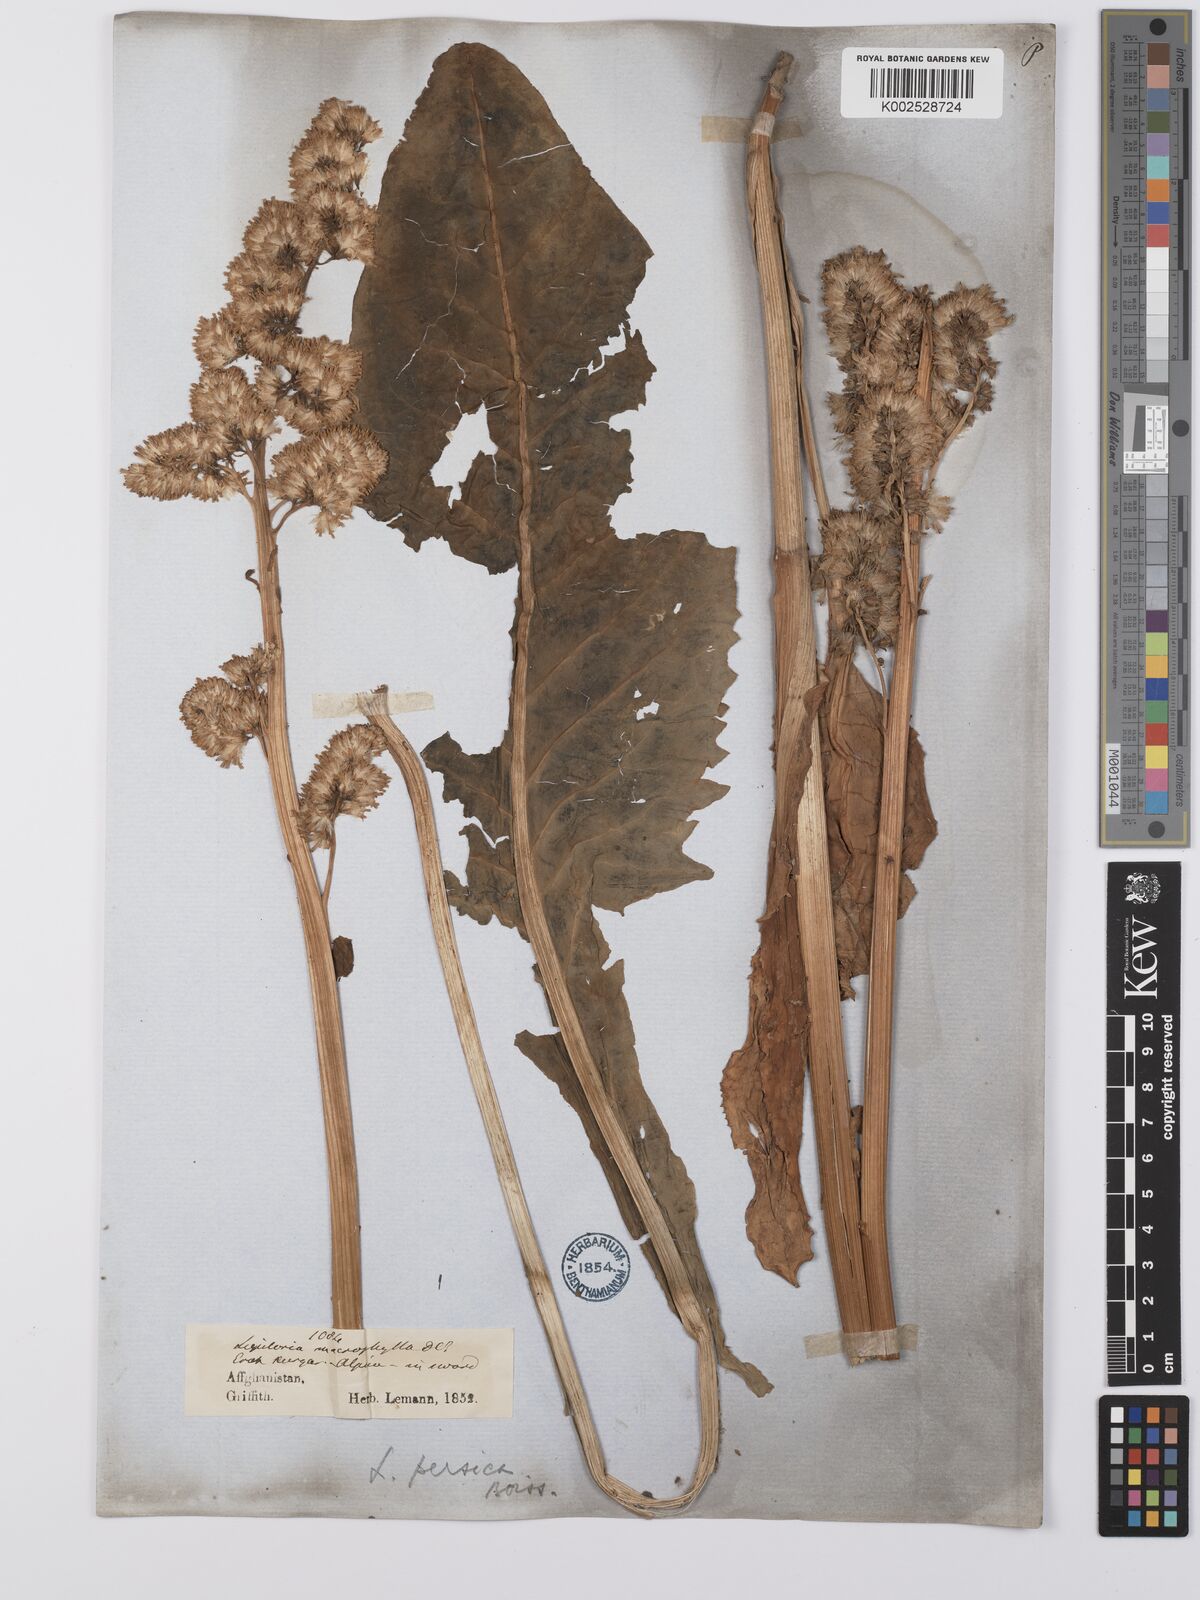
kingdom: Plantae
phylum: Tracheophyta
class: Magnoliopsida
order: Asterales
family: Asteraceae
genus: Ligularia
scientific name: Ligularia afghanica
